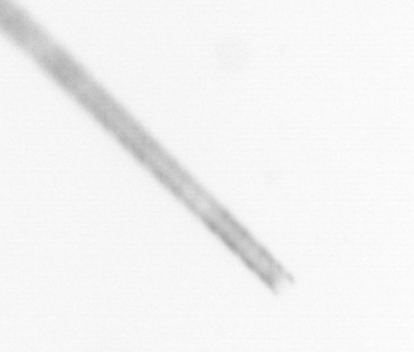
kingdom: Chromista
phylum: Ochrophyta
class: Bacillariophyceae
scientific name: Bacillariophyceae
